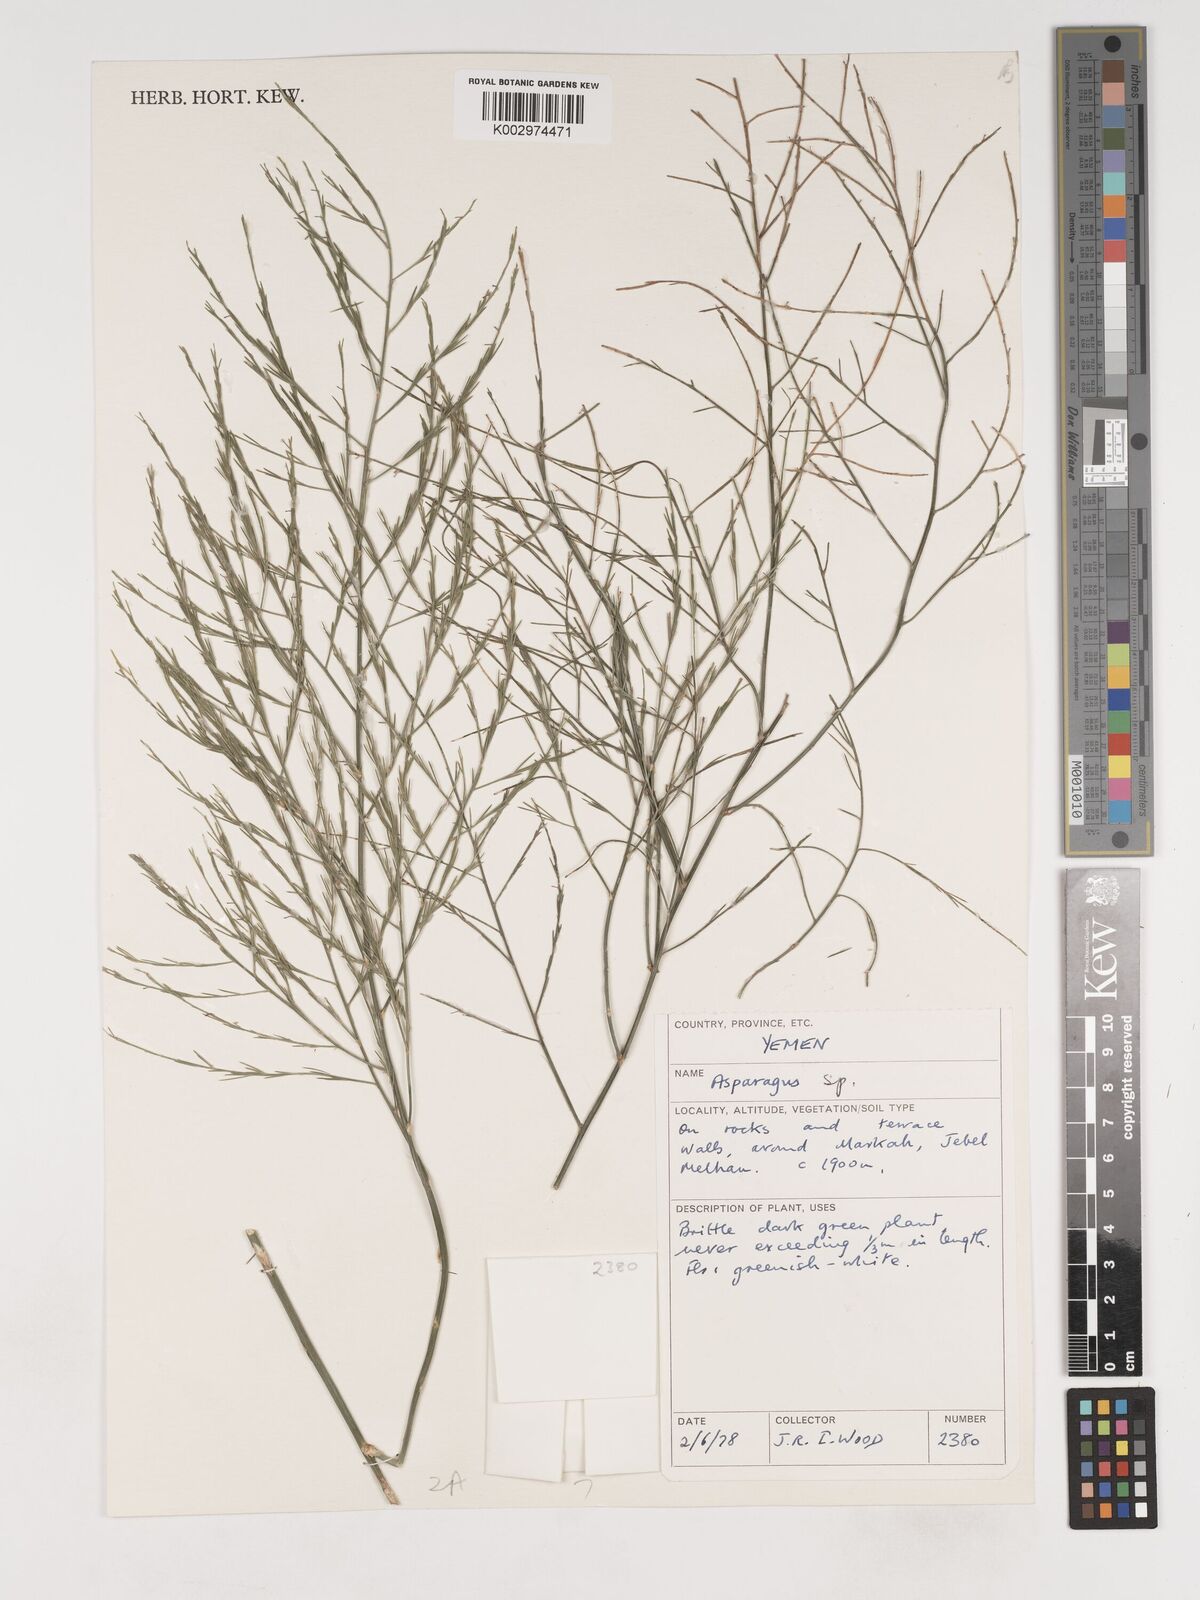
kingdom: Plantae
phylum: Tracheophyta
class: Liliopsida
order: Asparagales
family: Asparagaceae
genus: Asparagus
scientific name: Asparagus virgatus
